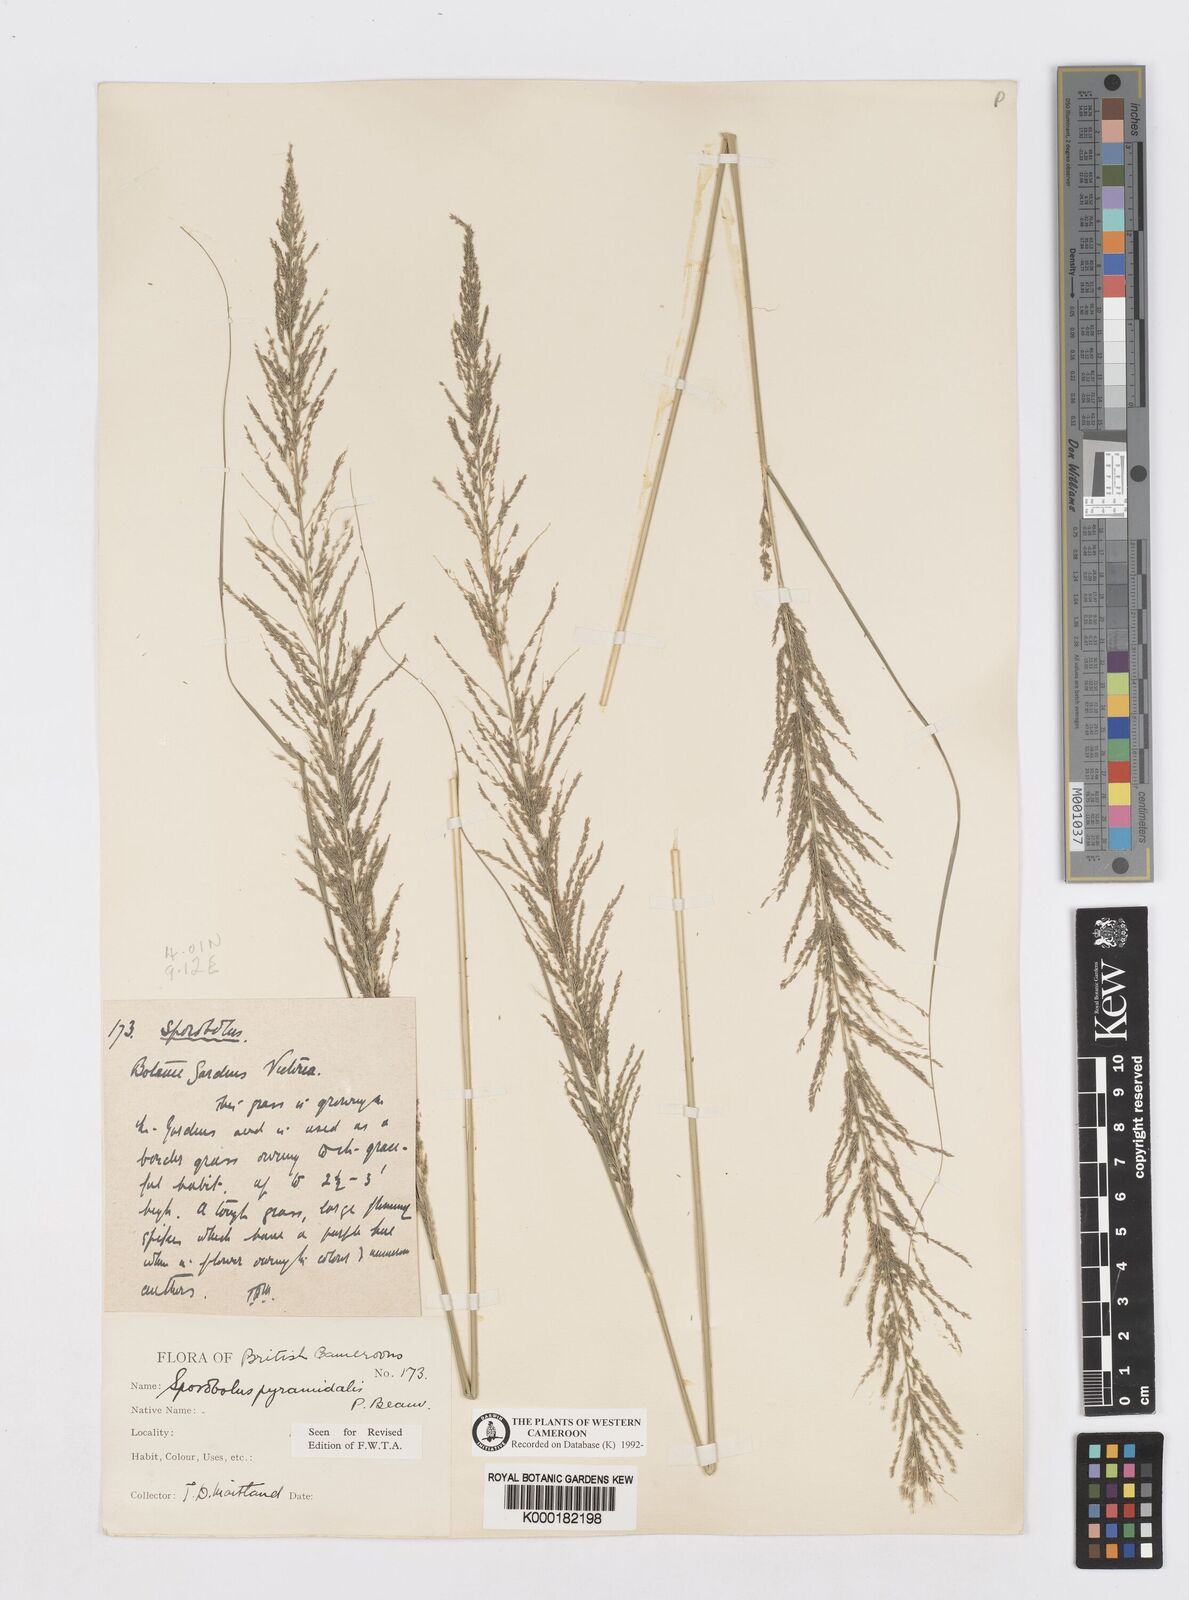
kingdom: Plantae
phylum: Tracheophyta
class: Liliopsida
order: Poales
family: Poaceae
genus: Sporobolus
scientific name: Sporobolus pyramidalis
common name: West indian dropseed
